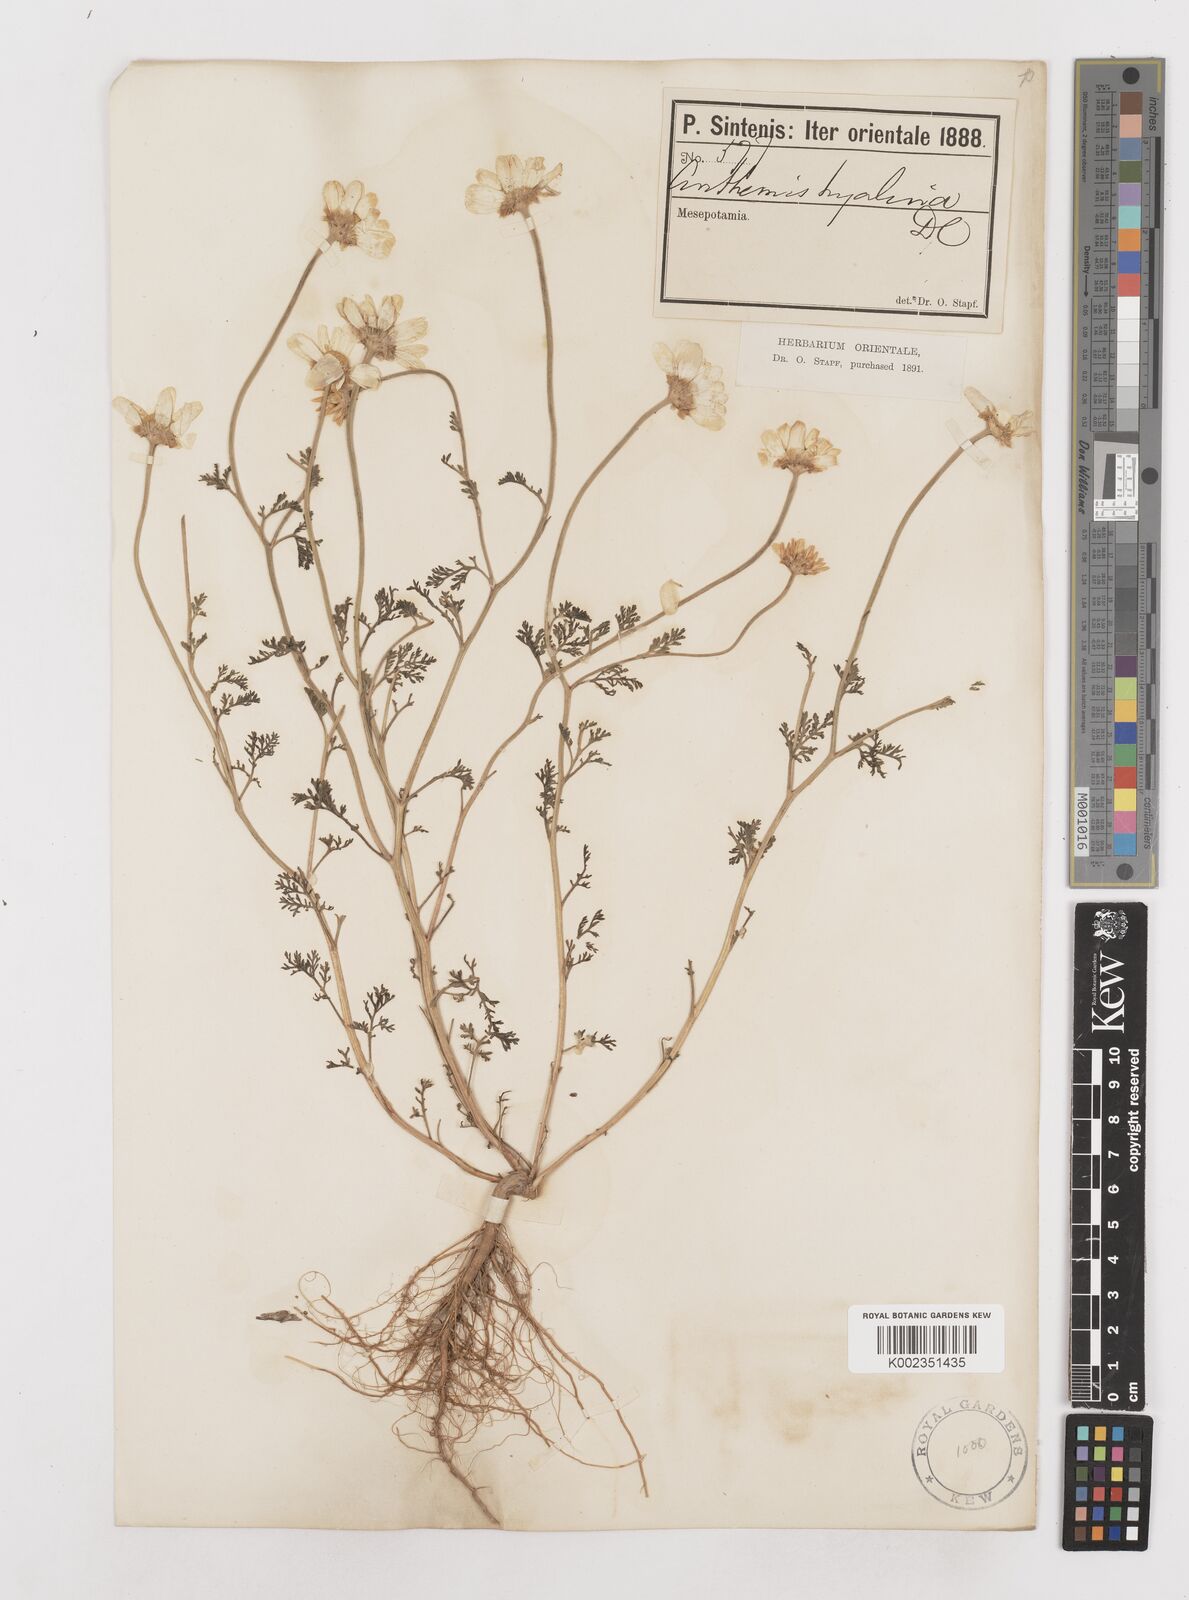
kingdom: Plantae
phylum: Tracheophyta
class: Magnoliopsida
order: Asterales
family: Asteraceae
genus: Anthemis
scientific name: Anthemis hyalina
